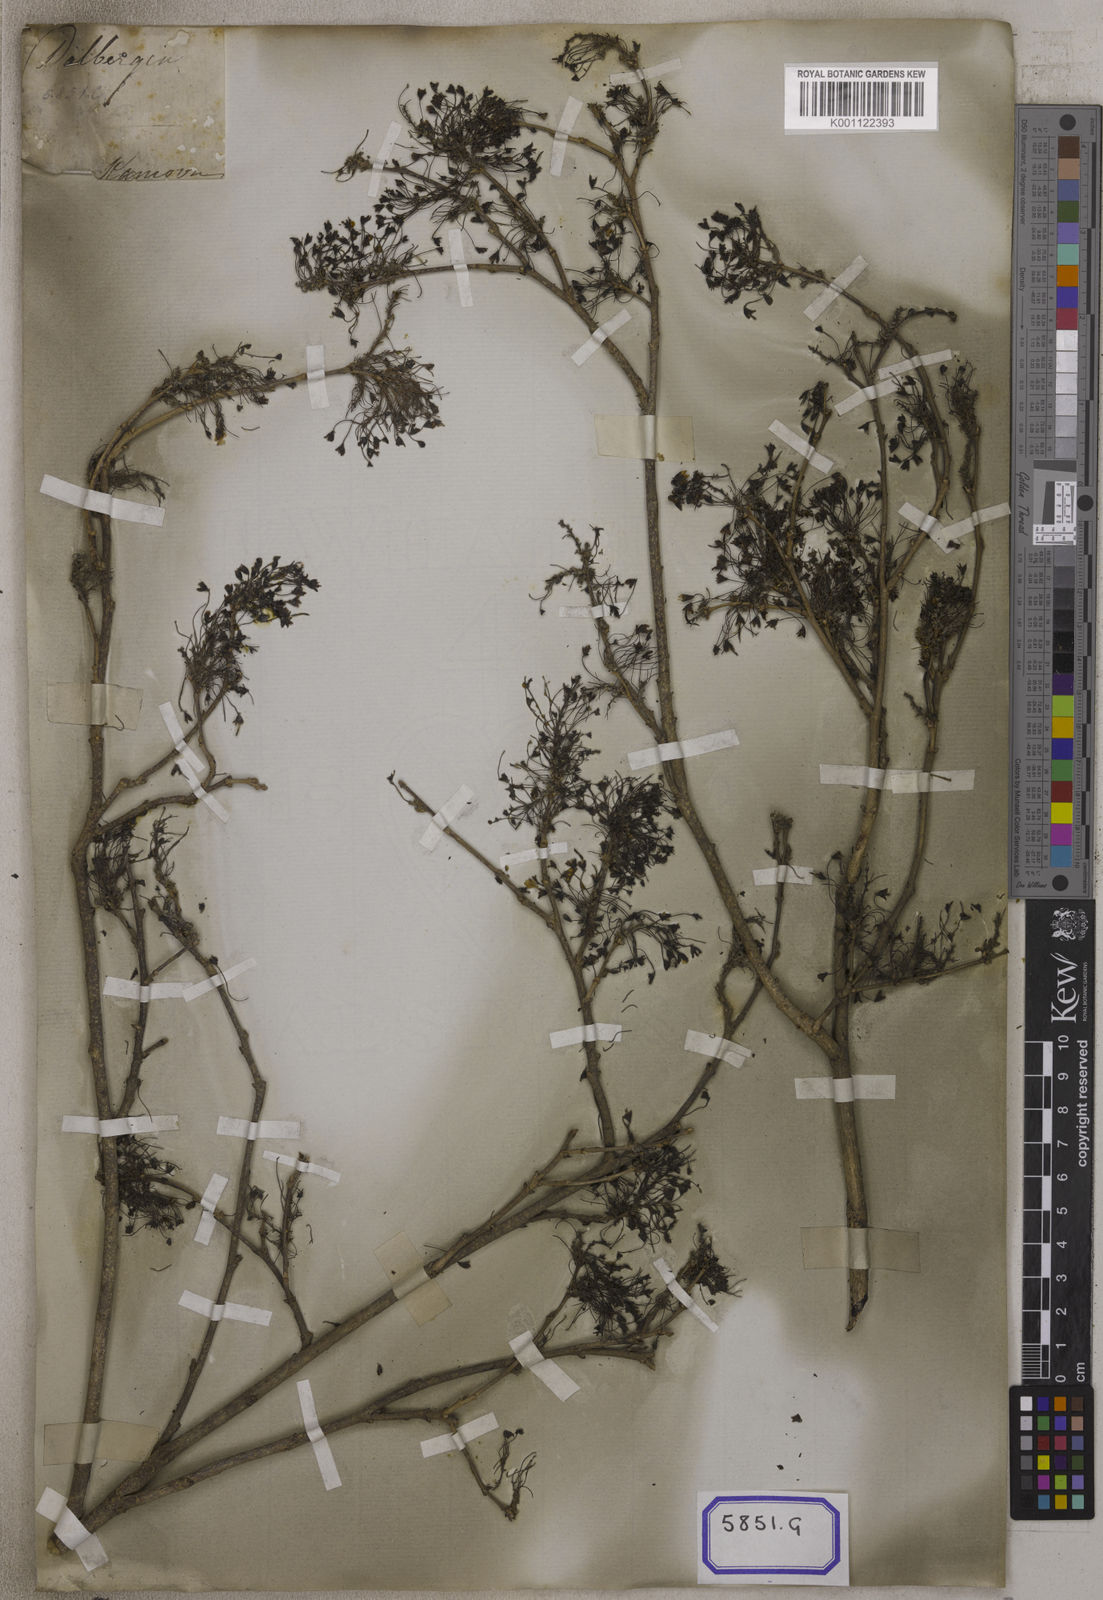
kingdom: Plantae
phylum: Tracheophyta
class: Magnoliopsida
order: Fabales
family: Fabaceae
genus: Ougeinia
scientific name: Ougeinia oojeinensis
